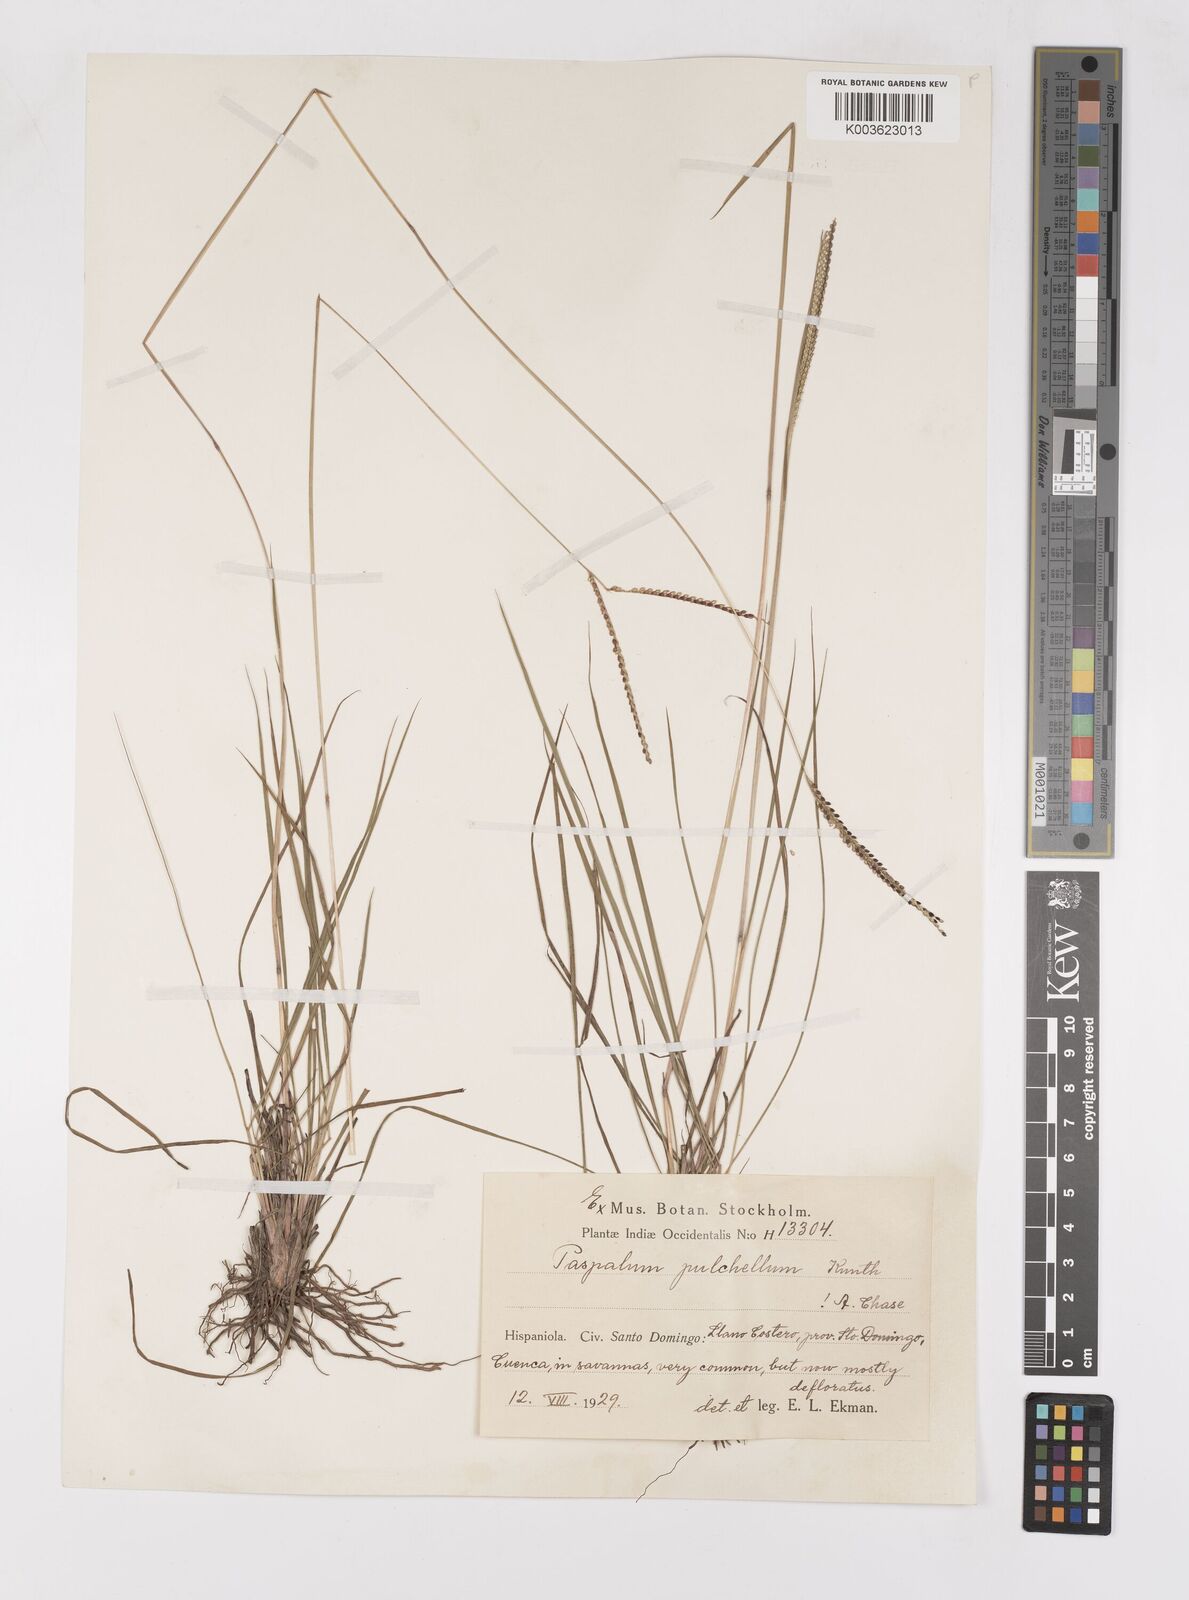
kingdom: Plantae
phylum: Tracheophyta
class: Liliopsida
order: Poales
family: Poaceae
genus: Paspalum
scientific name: Paspalum pulchellum
